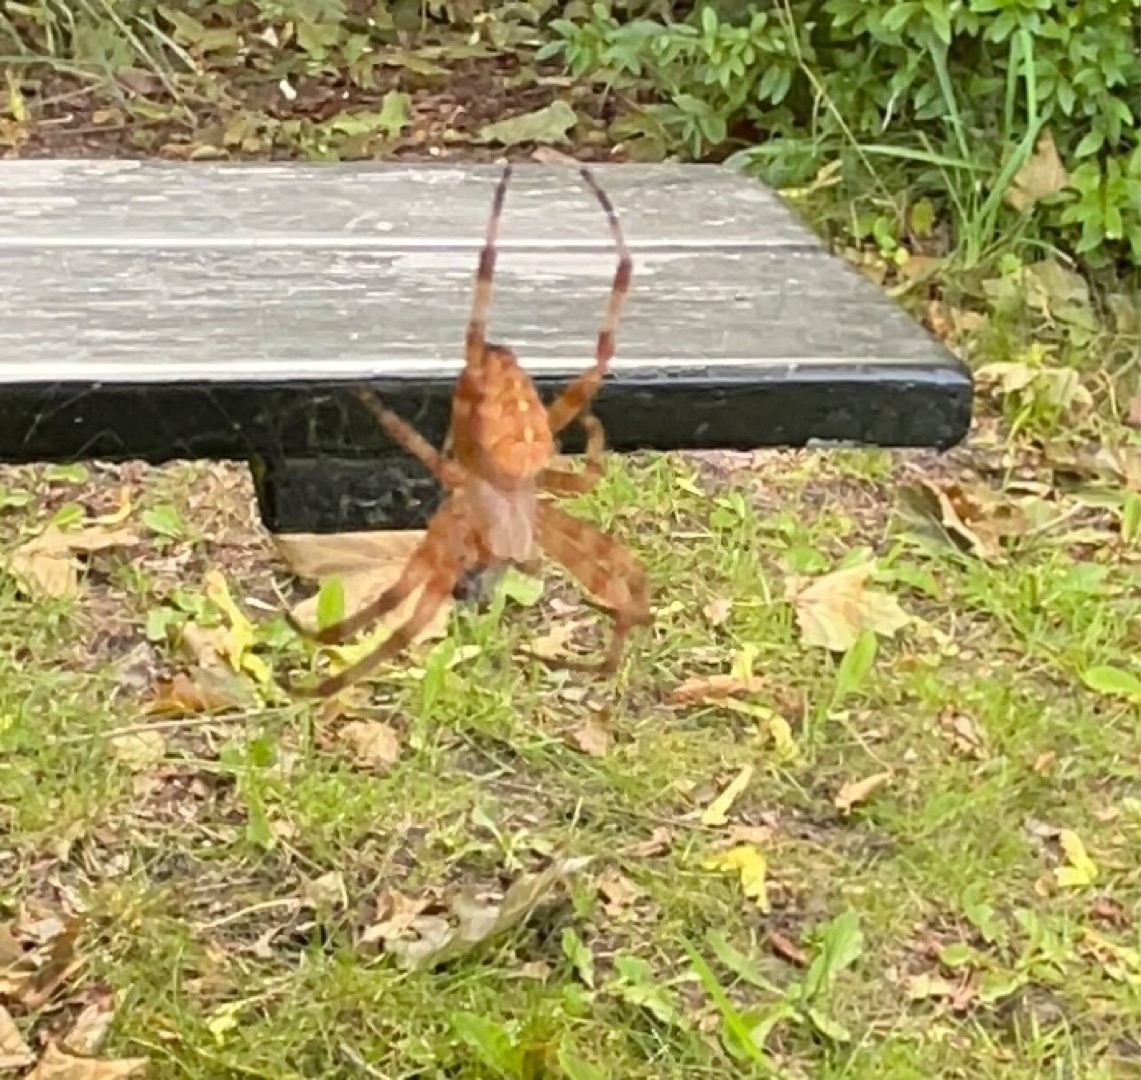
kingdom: Animalia
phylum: Arthropoda
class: Arachnida
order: Araneae
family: Araneidae
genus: Araneus
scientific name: Araneus diadematus
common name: Korsedderkop
